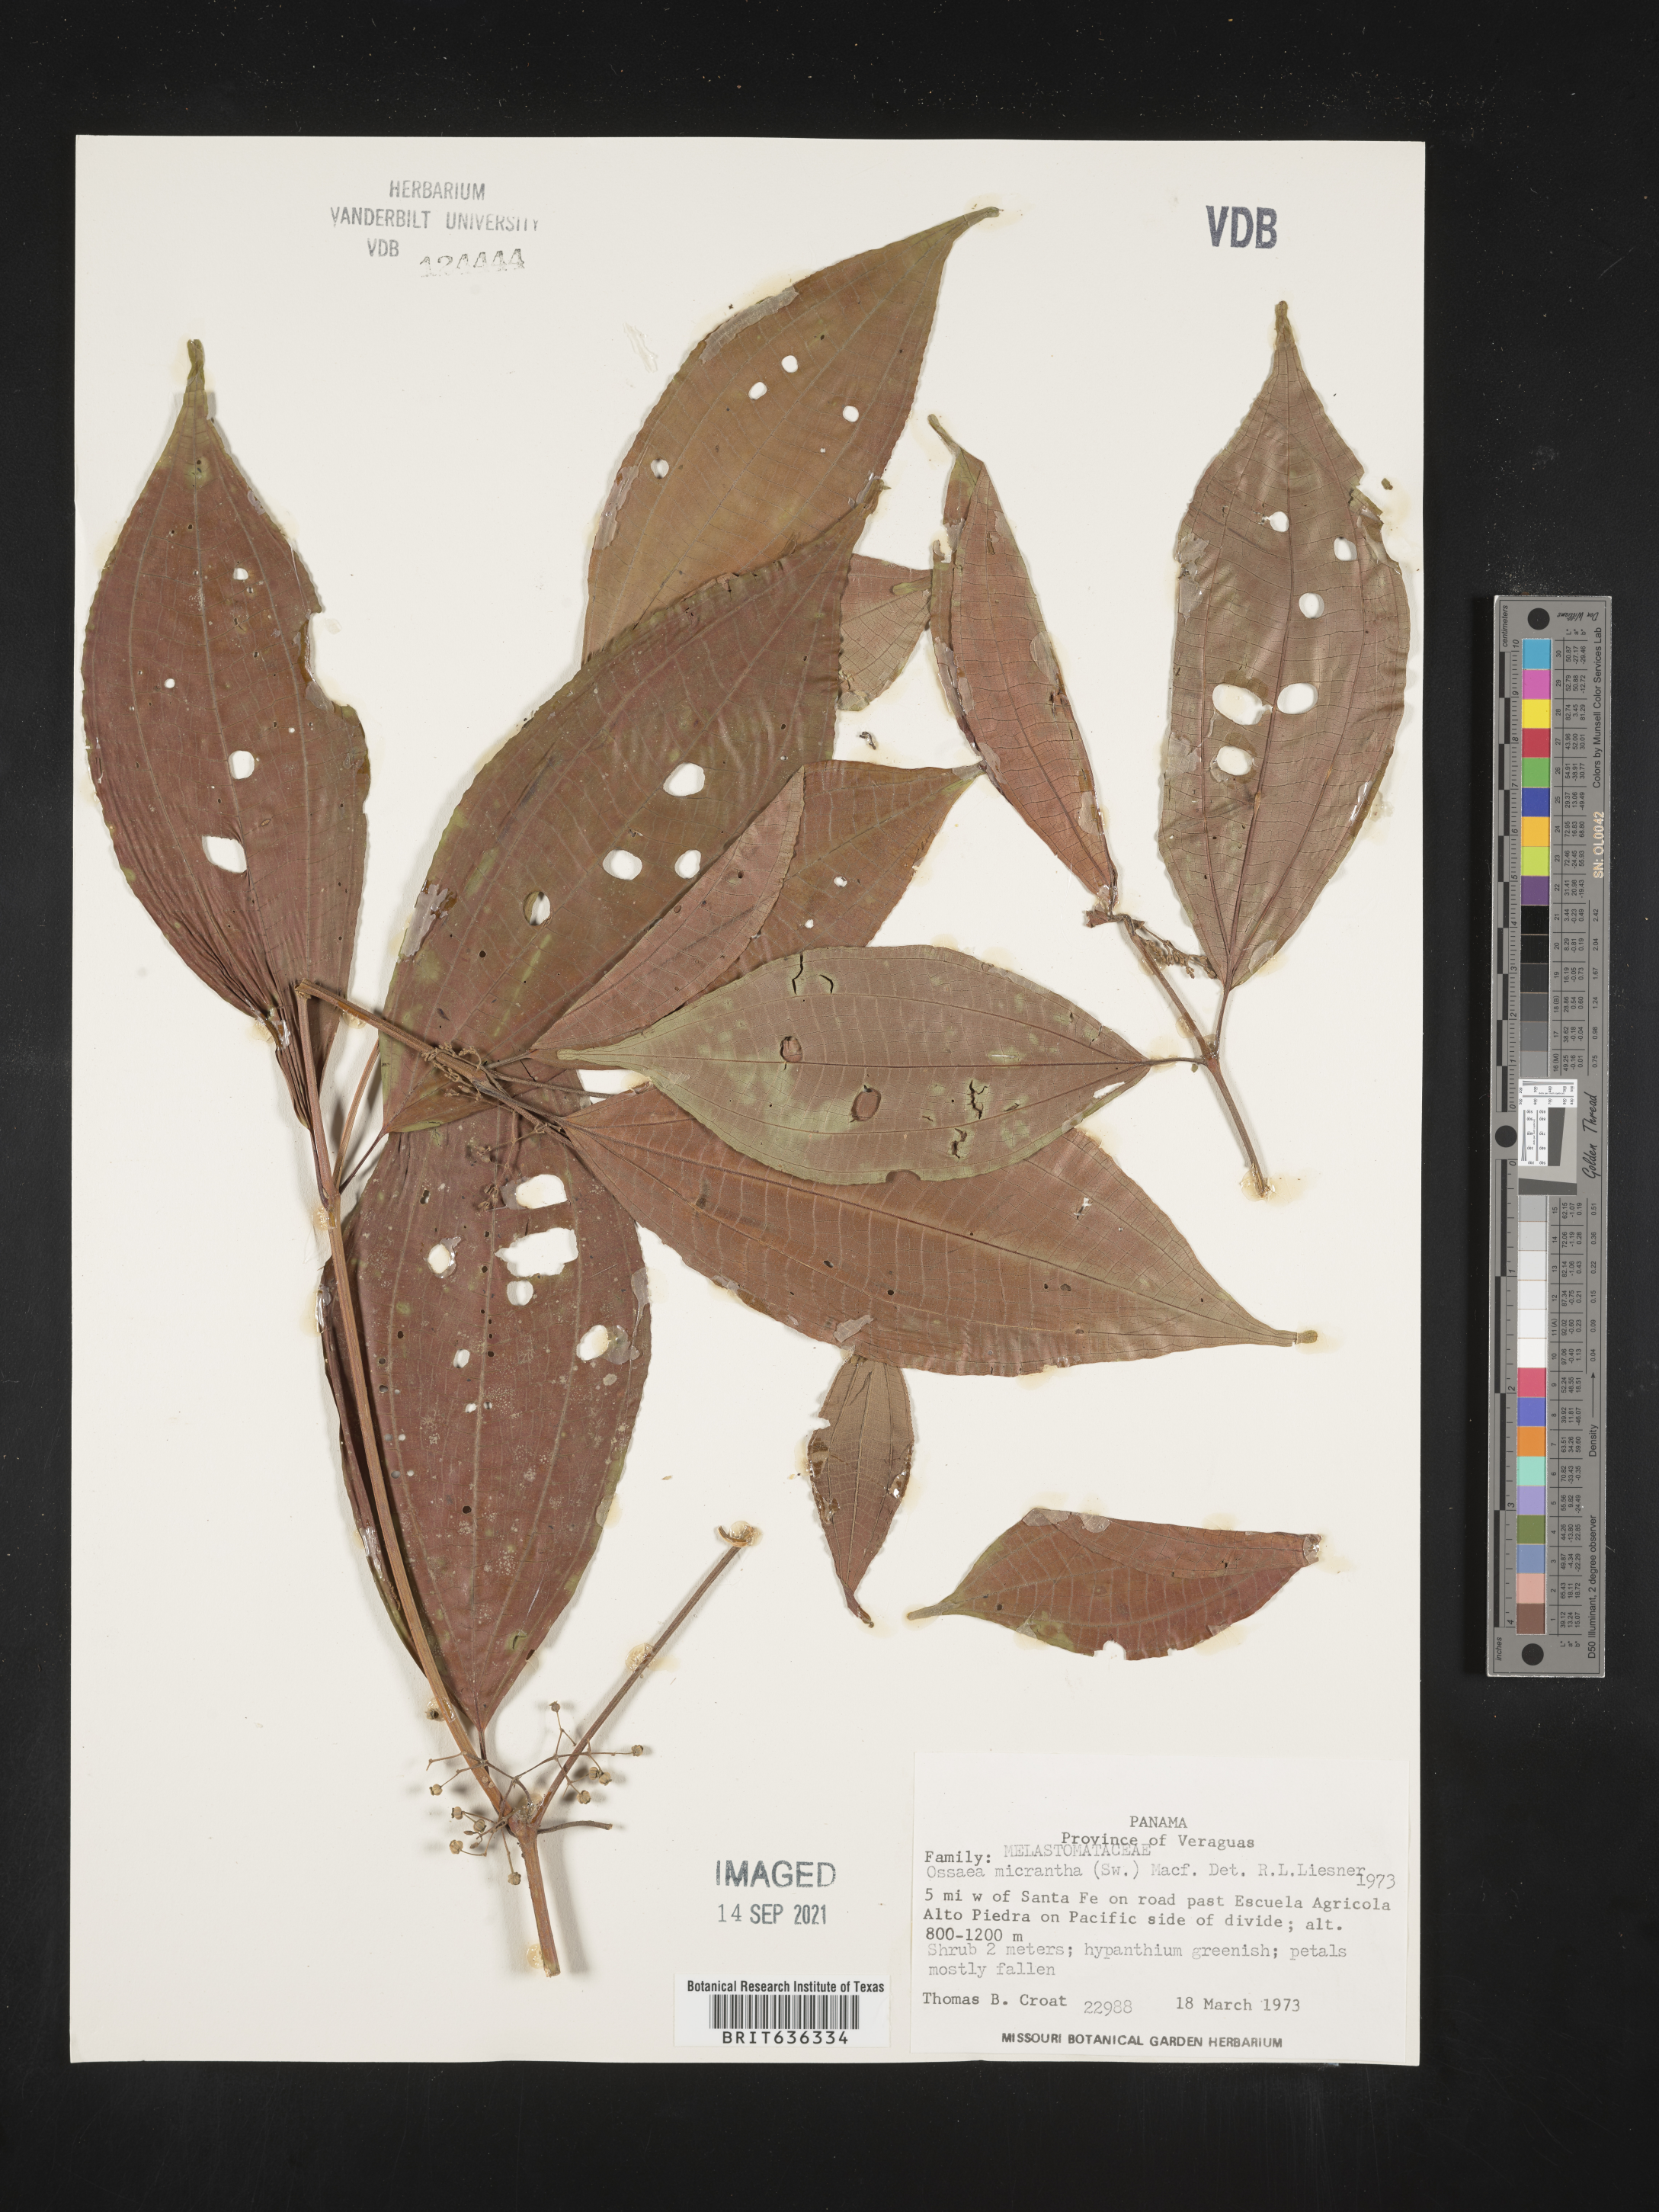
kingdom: Plantae
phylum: Tracheophyta
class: Magnoliopsida
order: Myrtales
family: Melastomataceae
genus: Ossaea
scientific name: Ossaea
